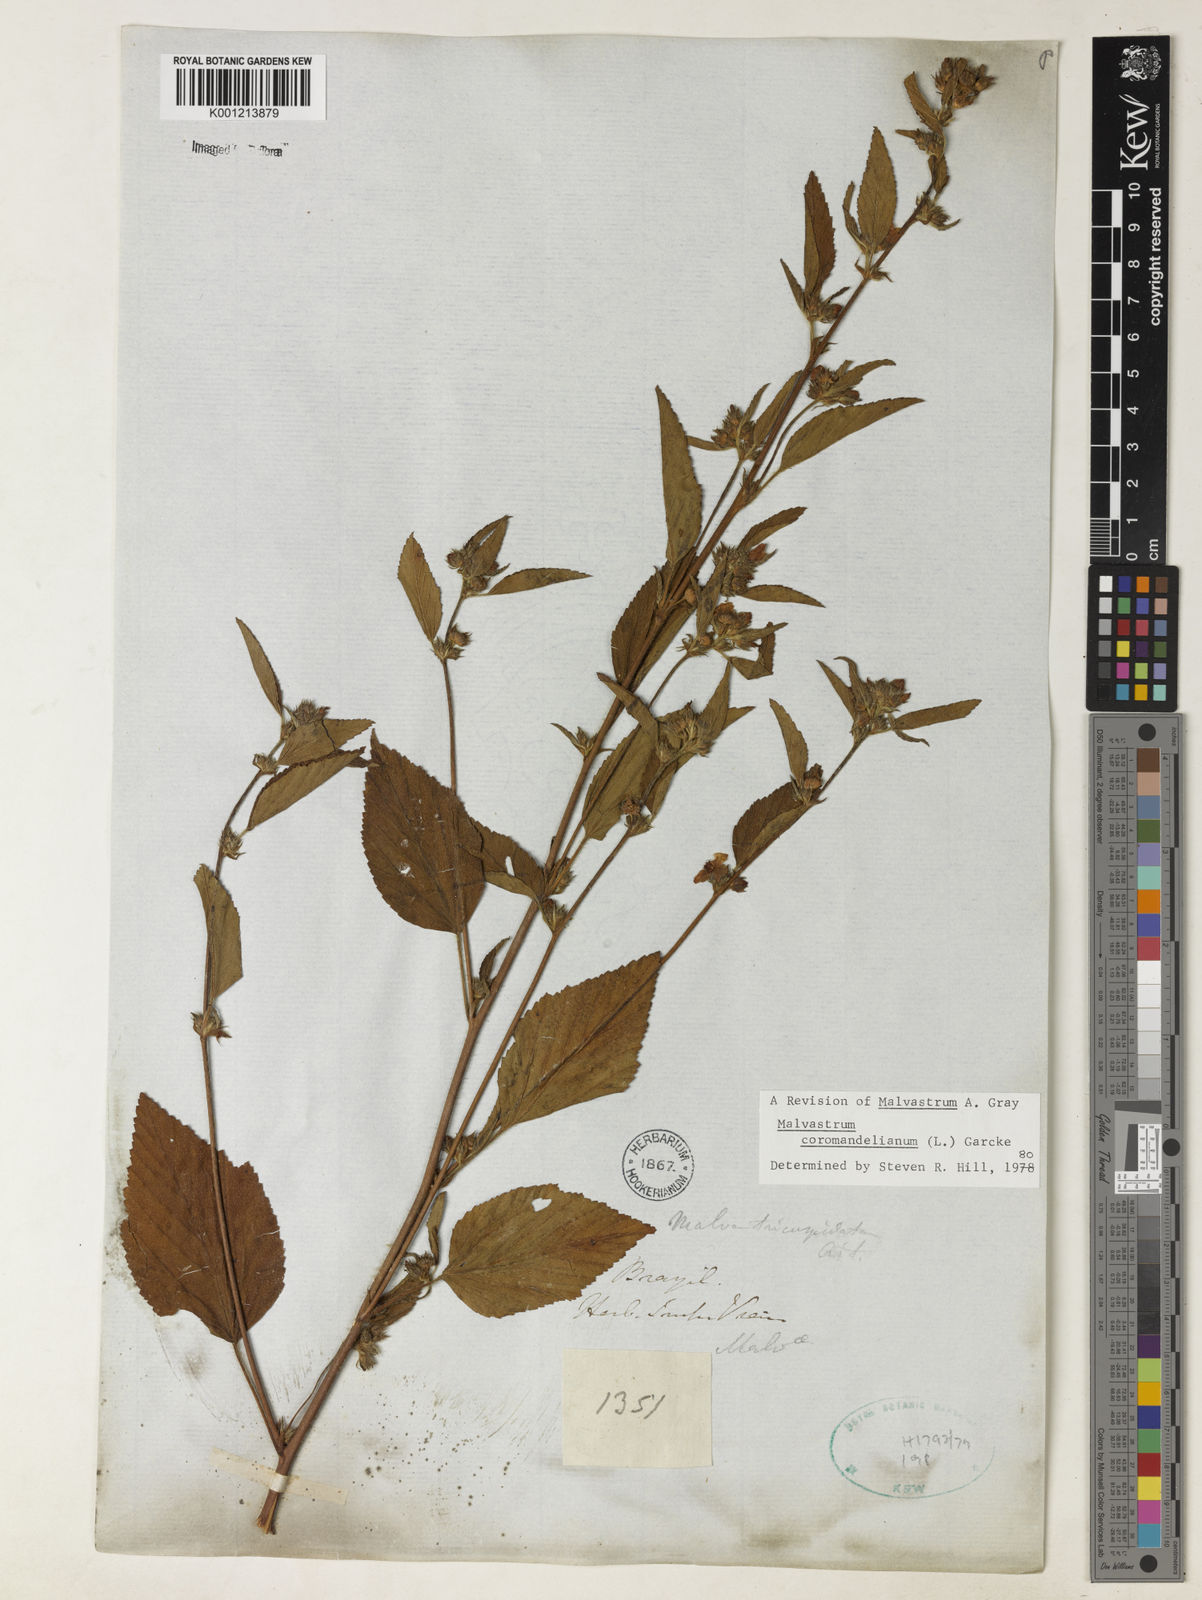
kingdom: Plantae
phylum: Tracheophyta
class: Magnoliopsida
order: Malvales
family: Malvaceae
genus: Malvastrum
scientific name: Malvastrum coromandelianum
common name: Threelobe false mallow
